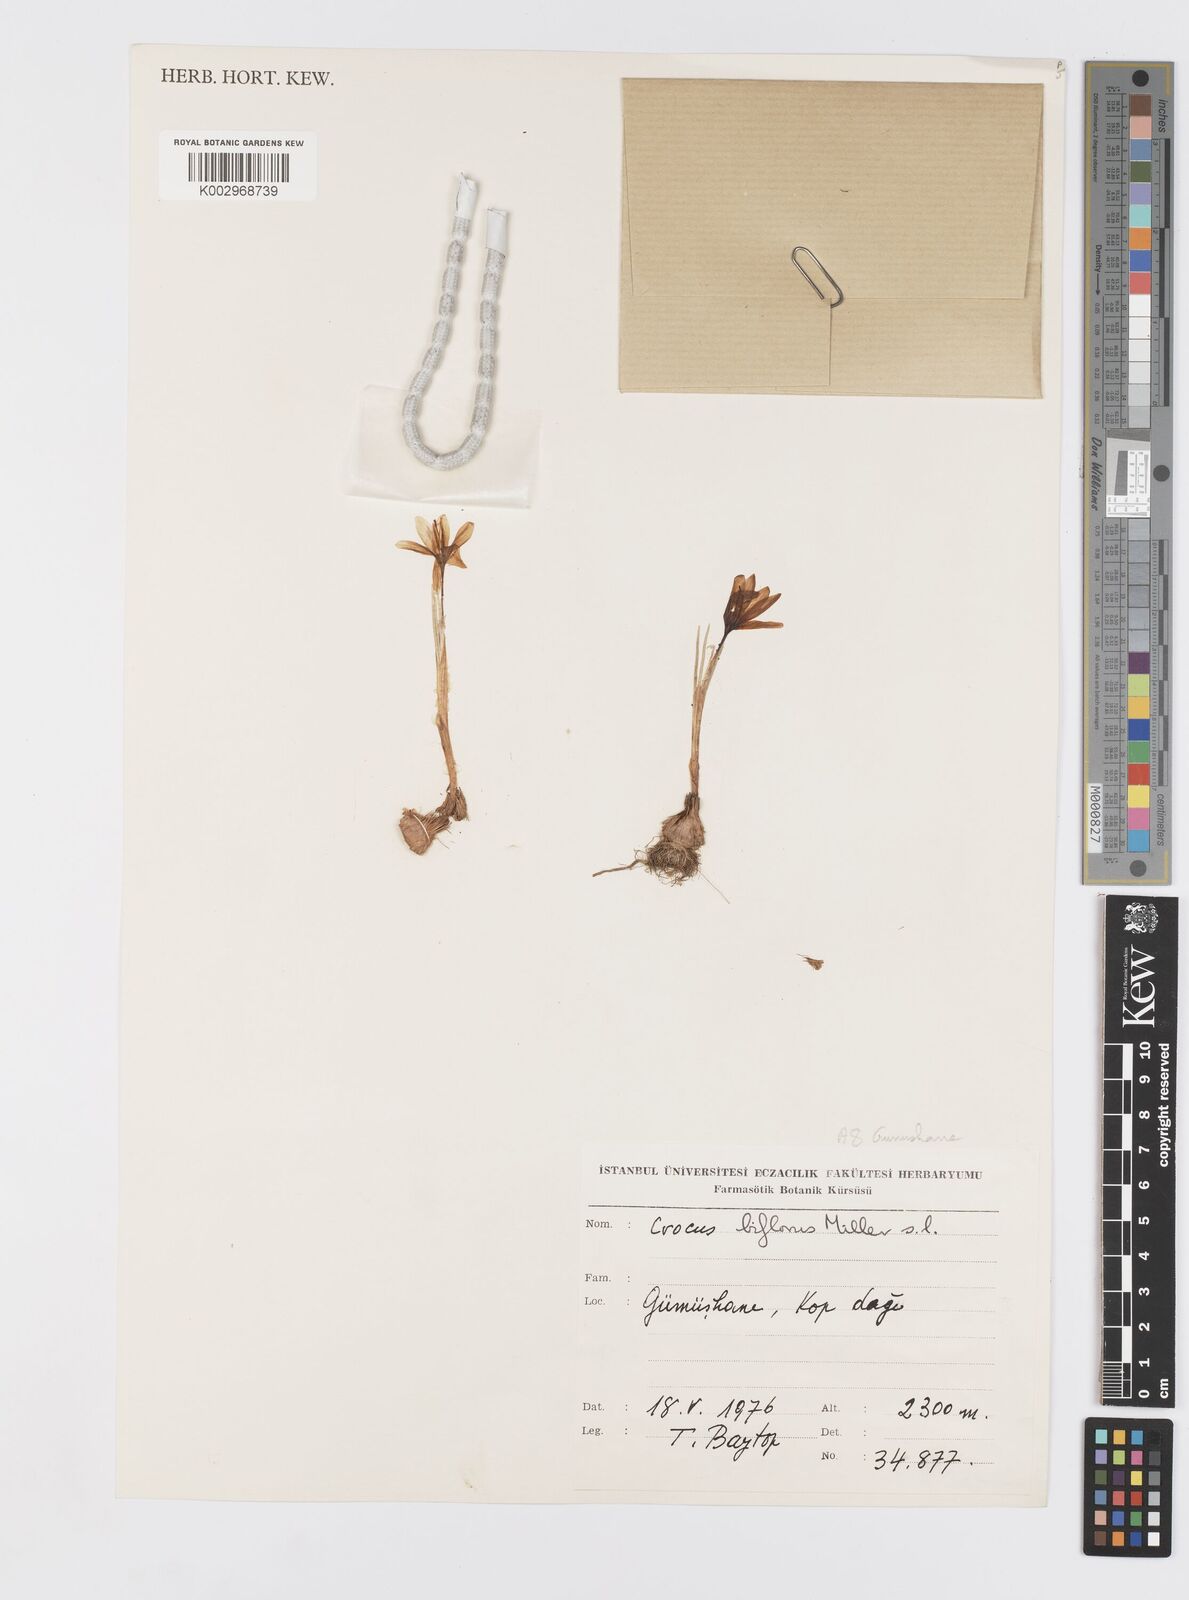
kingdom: Plantae
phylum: Tracheophyta
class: Liliopsida
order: Asparagales
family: Iridaceae
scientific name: Iridaceae
